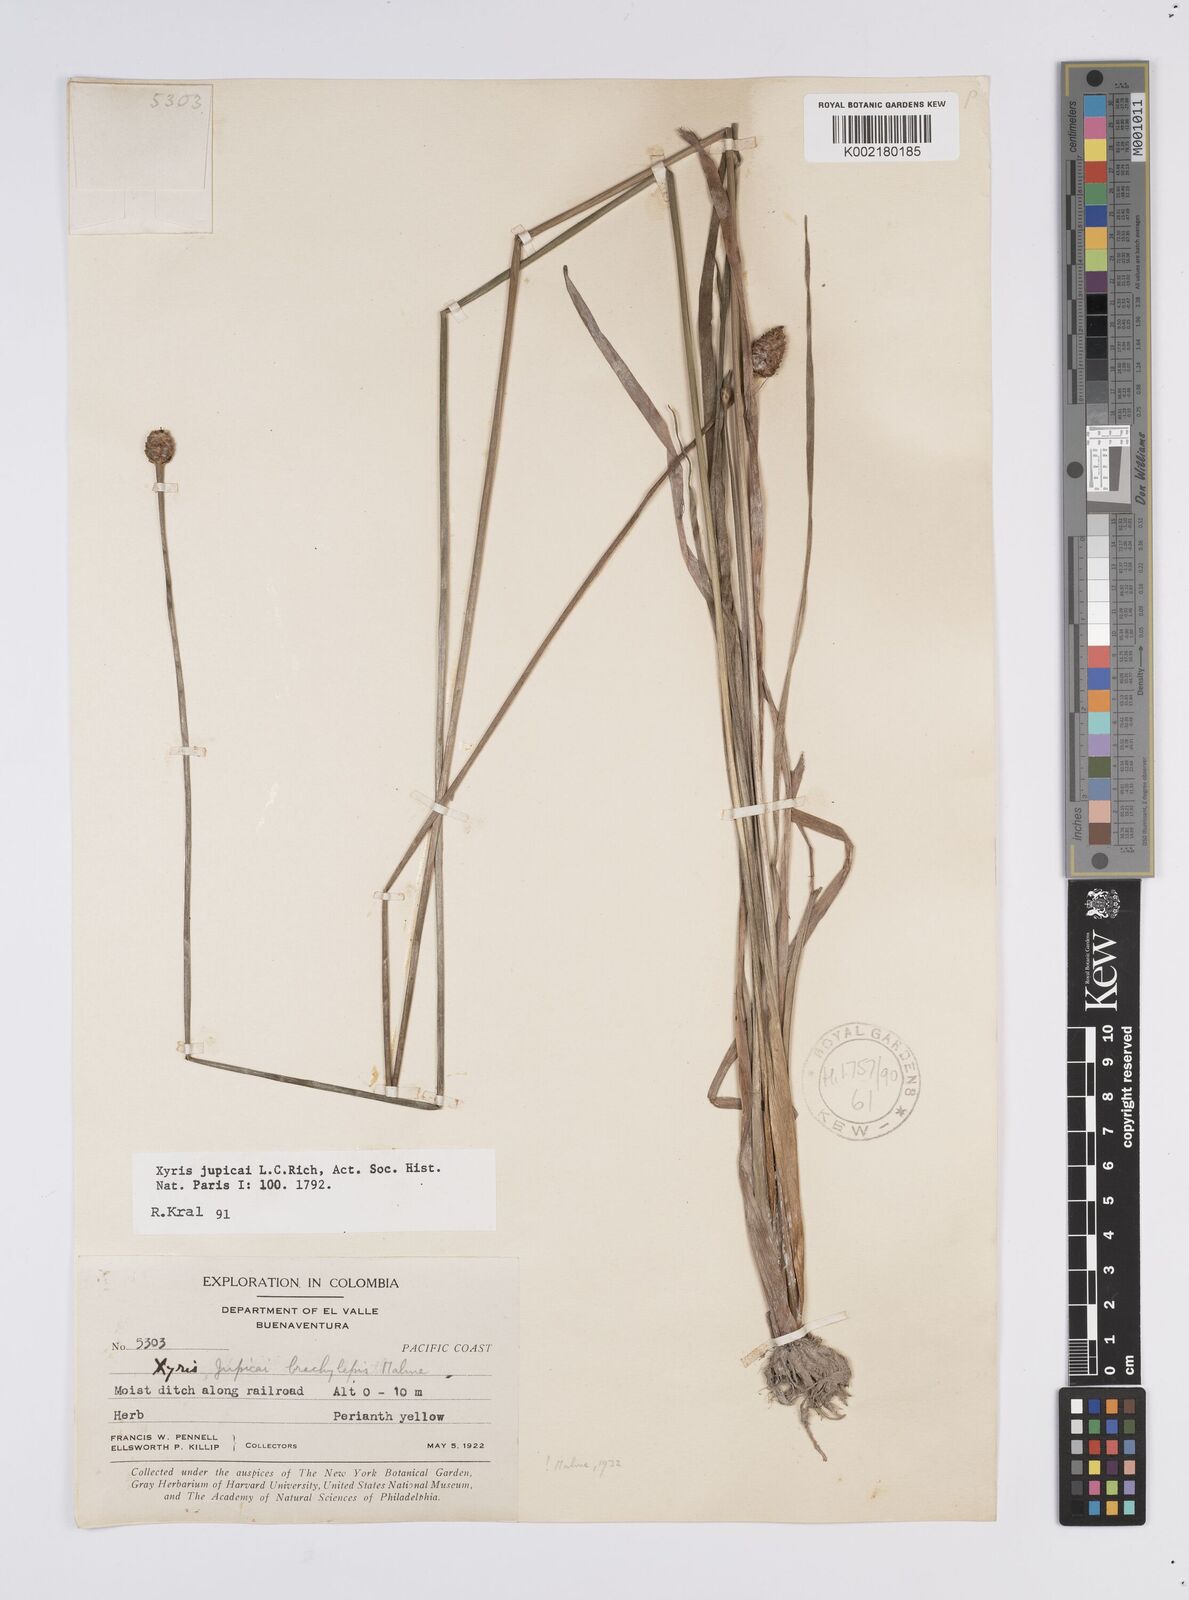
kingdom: Plantae
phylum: Tracheophyta
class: Liliopsida
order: Poales
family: Xyridaceae
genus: Xyris
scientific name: Xyris jupicai
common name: Richard's yelloweyed grass
